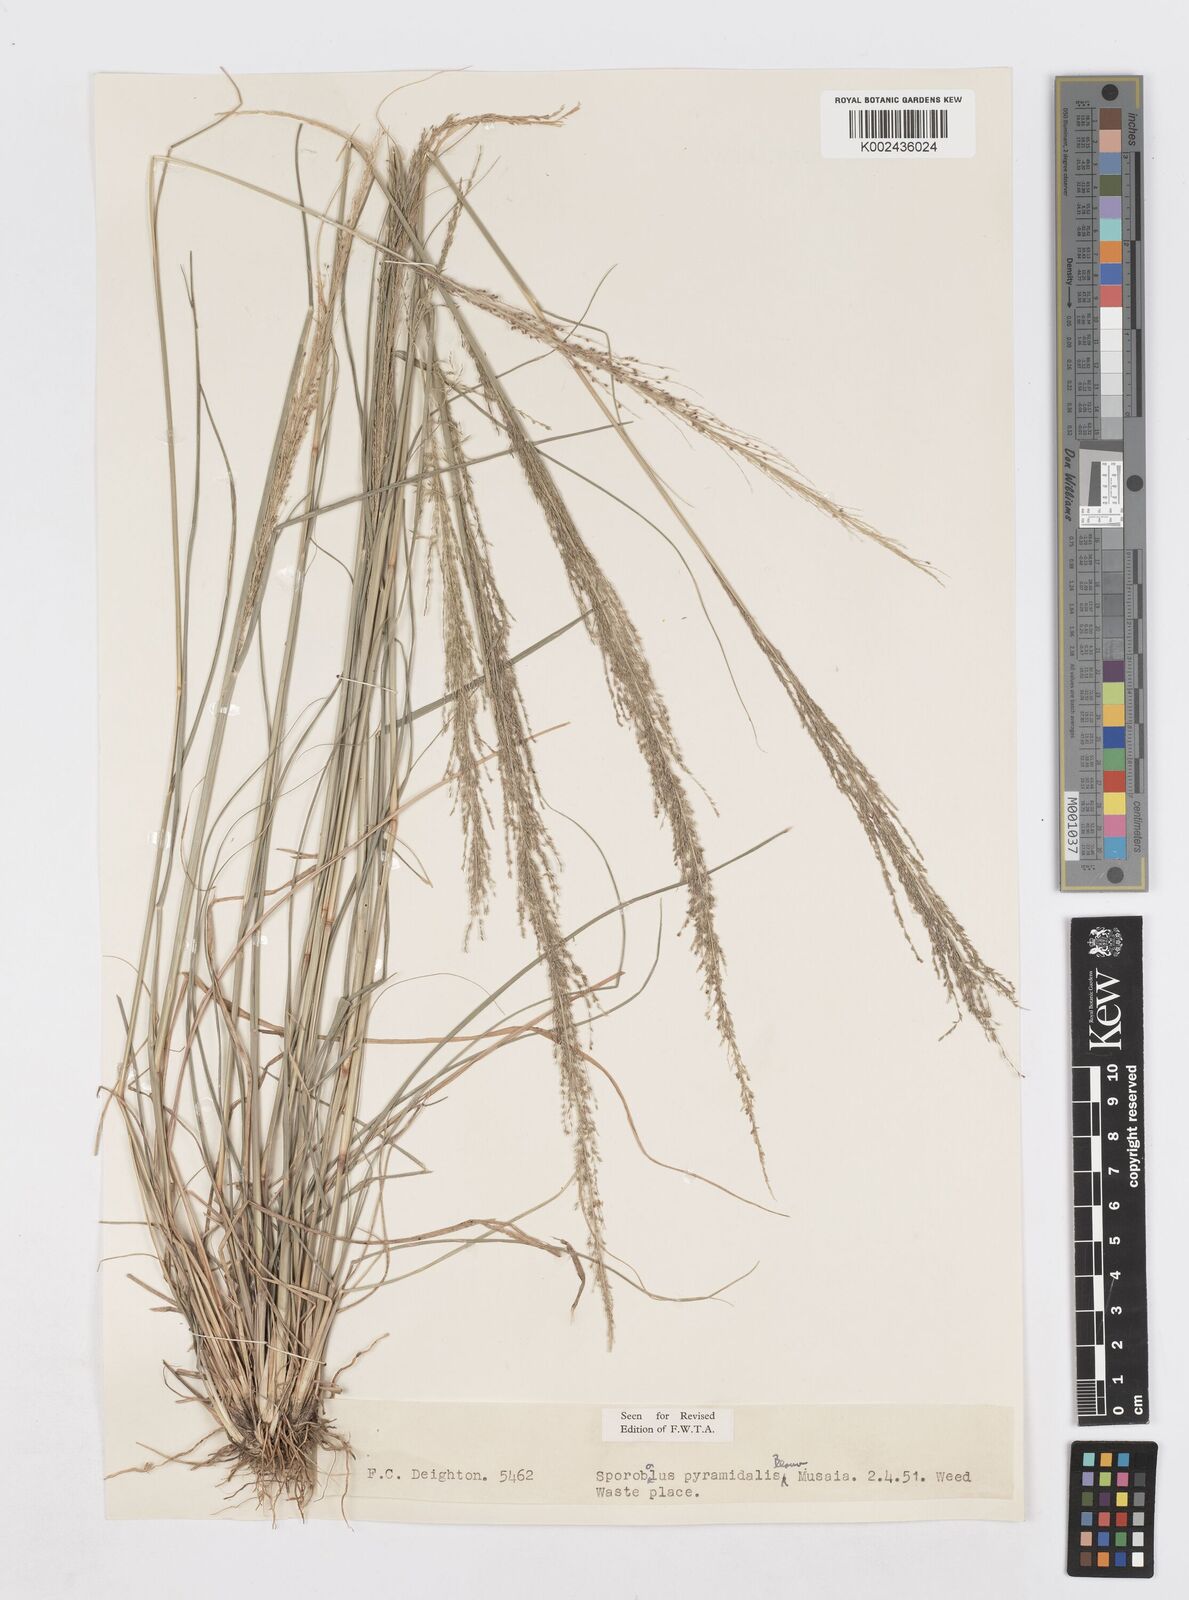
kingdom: Plantae
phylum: Tracheophyta
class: Liliopsida
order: Poales
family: Poaceae
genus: Sporobolus
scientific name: Sporobolus pyramidalis
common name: West indian dropseed
